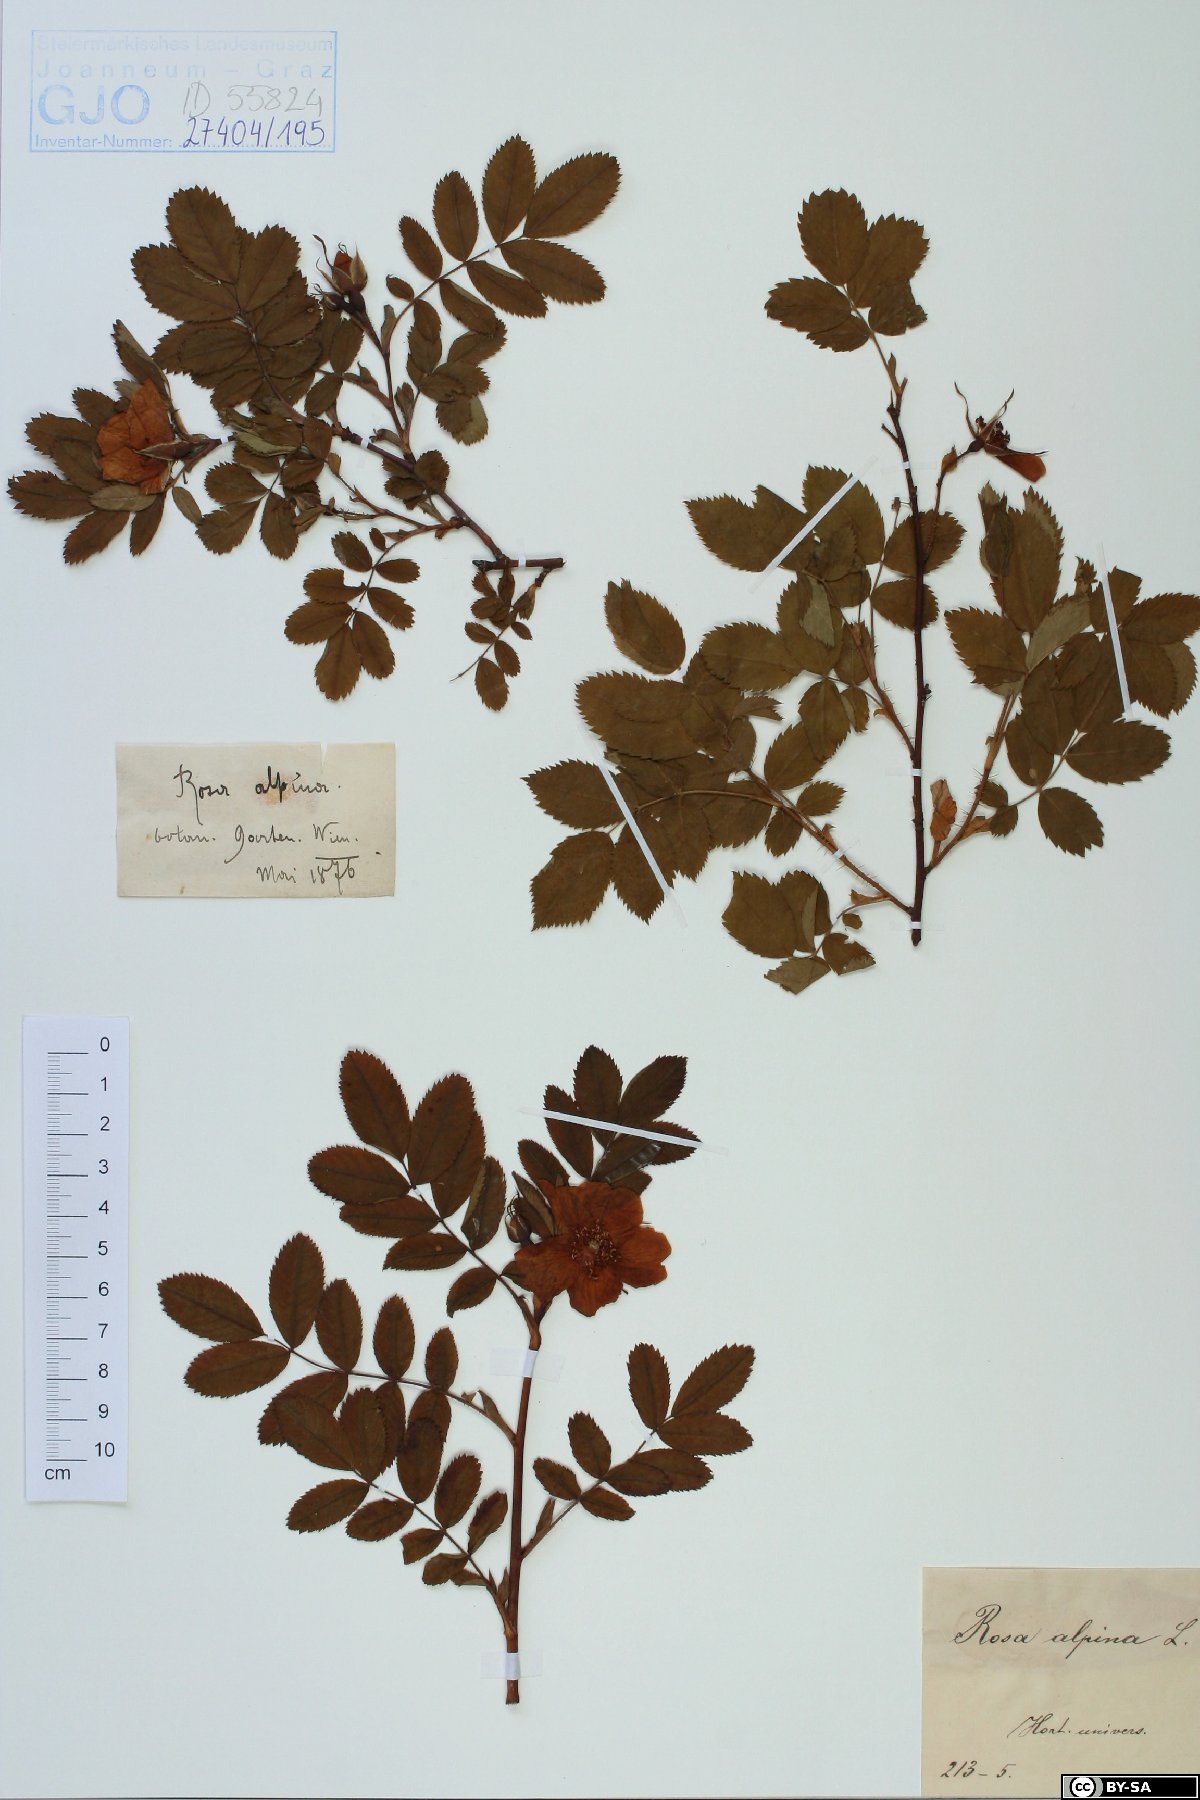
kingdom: Plantae
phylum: Tracheophyta
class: Magnoliopsida
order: Rosales
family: Rosaceae
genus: Rosa
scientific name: Rosa pendulina
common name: Alpine rose
